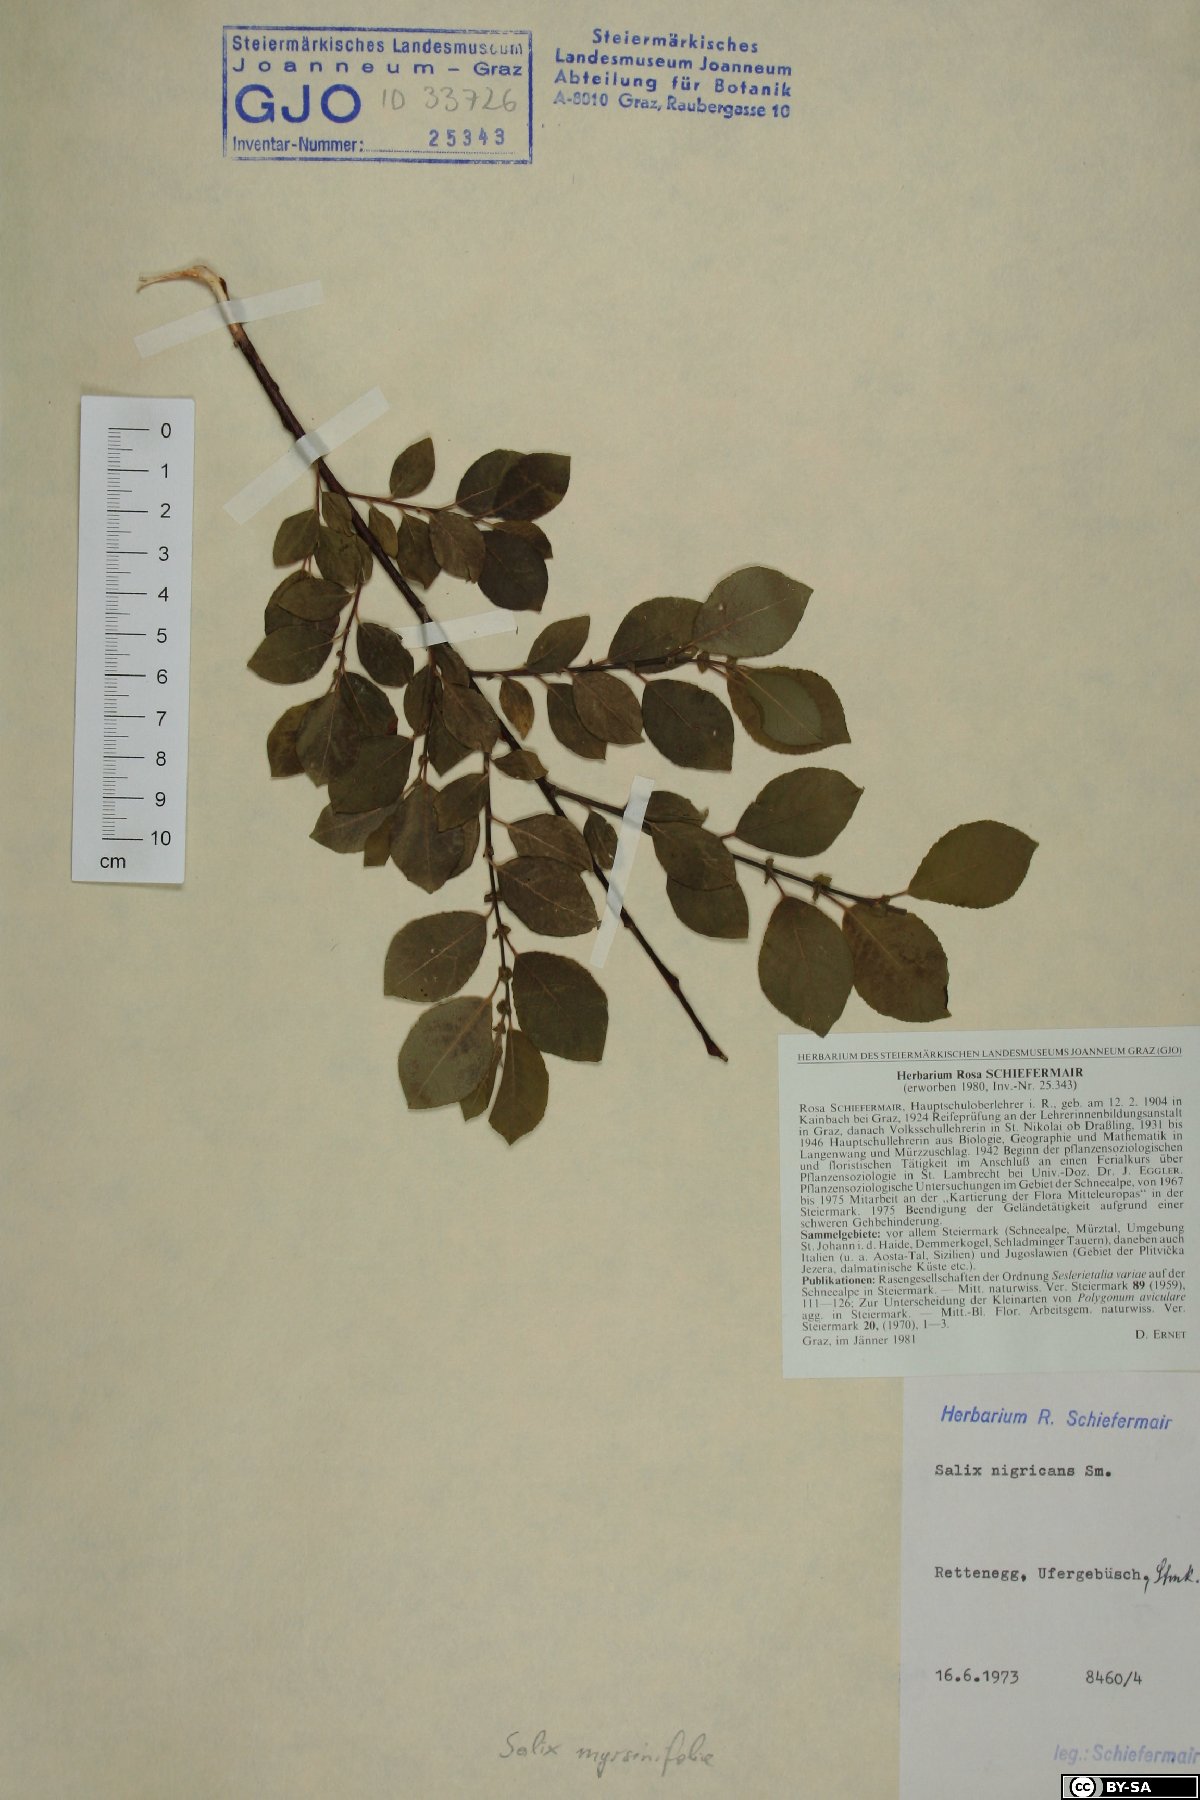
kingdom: Plantae
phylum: Tracheophyta
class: Magnoliopsida
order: Malpighiales
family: Salicaceae
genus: Salix
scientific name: Salix myrsinifolia
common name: Dark-leaved willow
